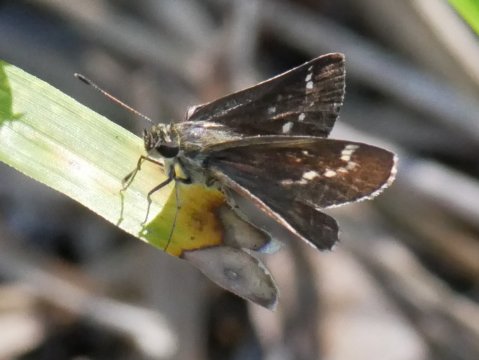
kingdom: Animalia
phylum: Arthropoda
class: Insecta
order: Lepidoptera
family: Hesperiidae
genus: Mastor
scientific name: Mastor aesculapius
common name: Lace-winged Roadside-Skipper
